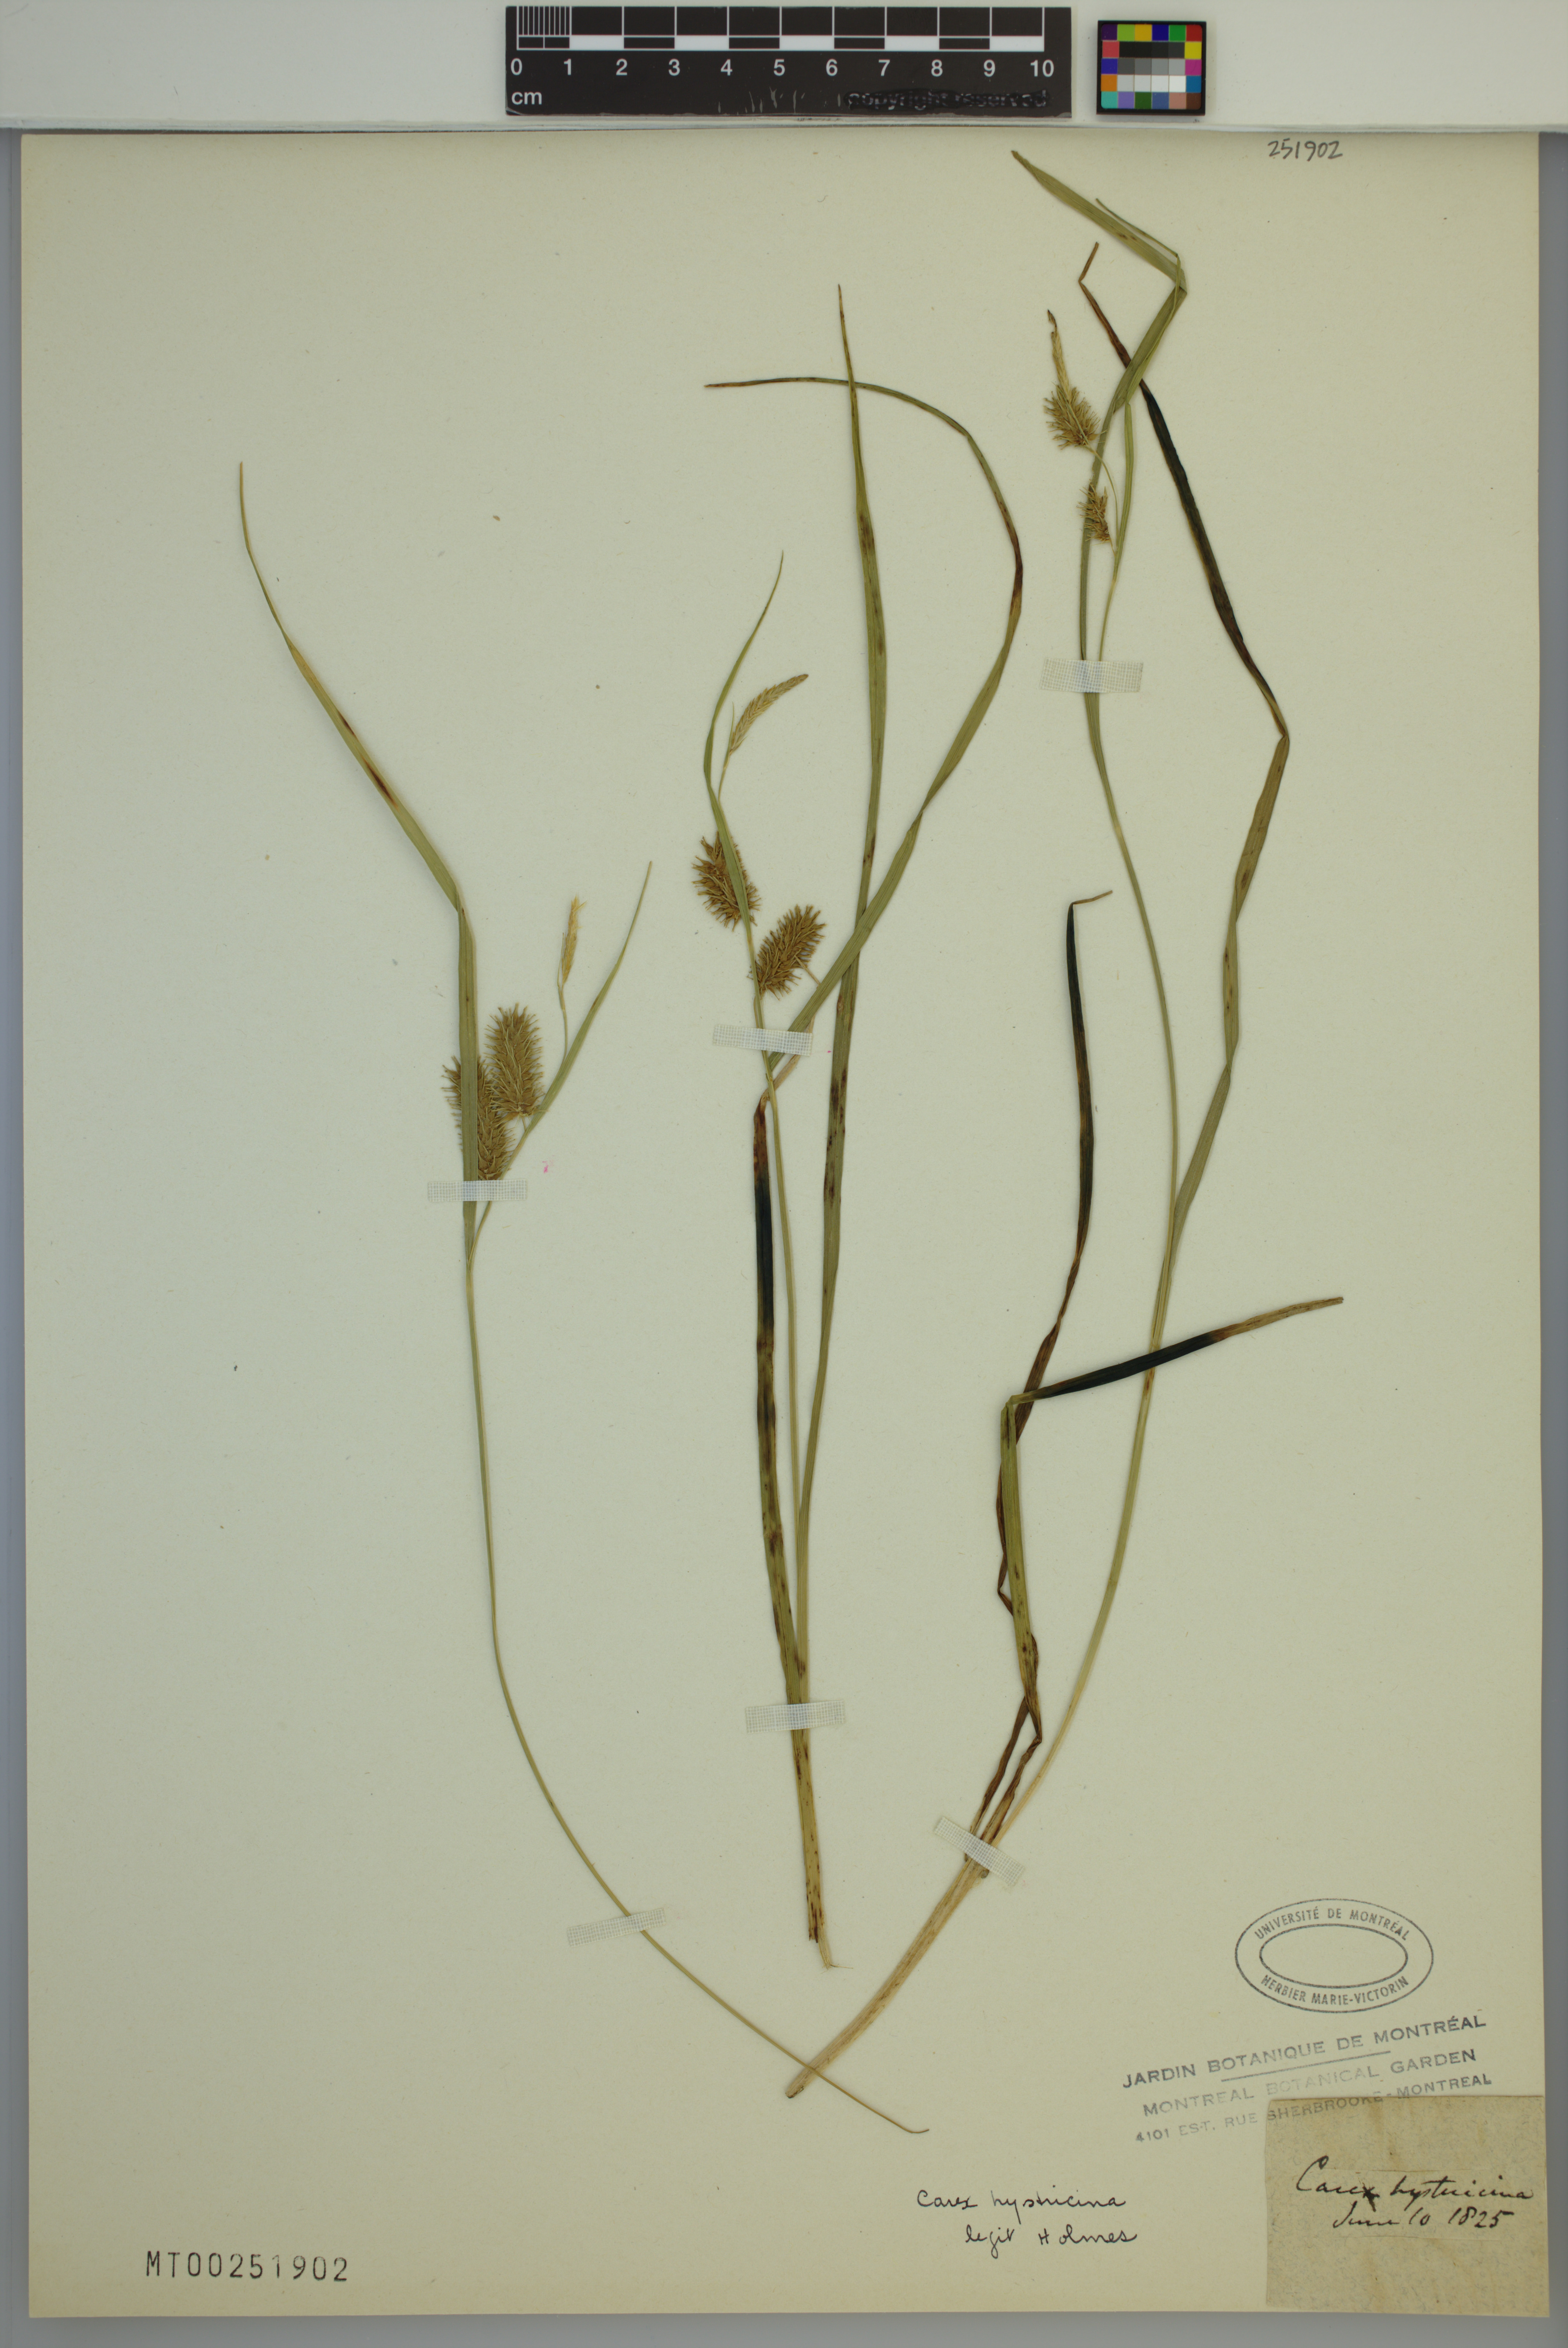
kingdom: Plantae
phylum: Tracheophyta
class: Liliopsida
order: Poales
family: Cyperaceae
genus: Carex
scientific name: Carex hystericina
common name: Bottlebrush sedge
